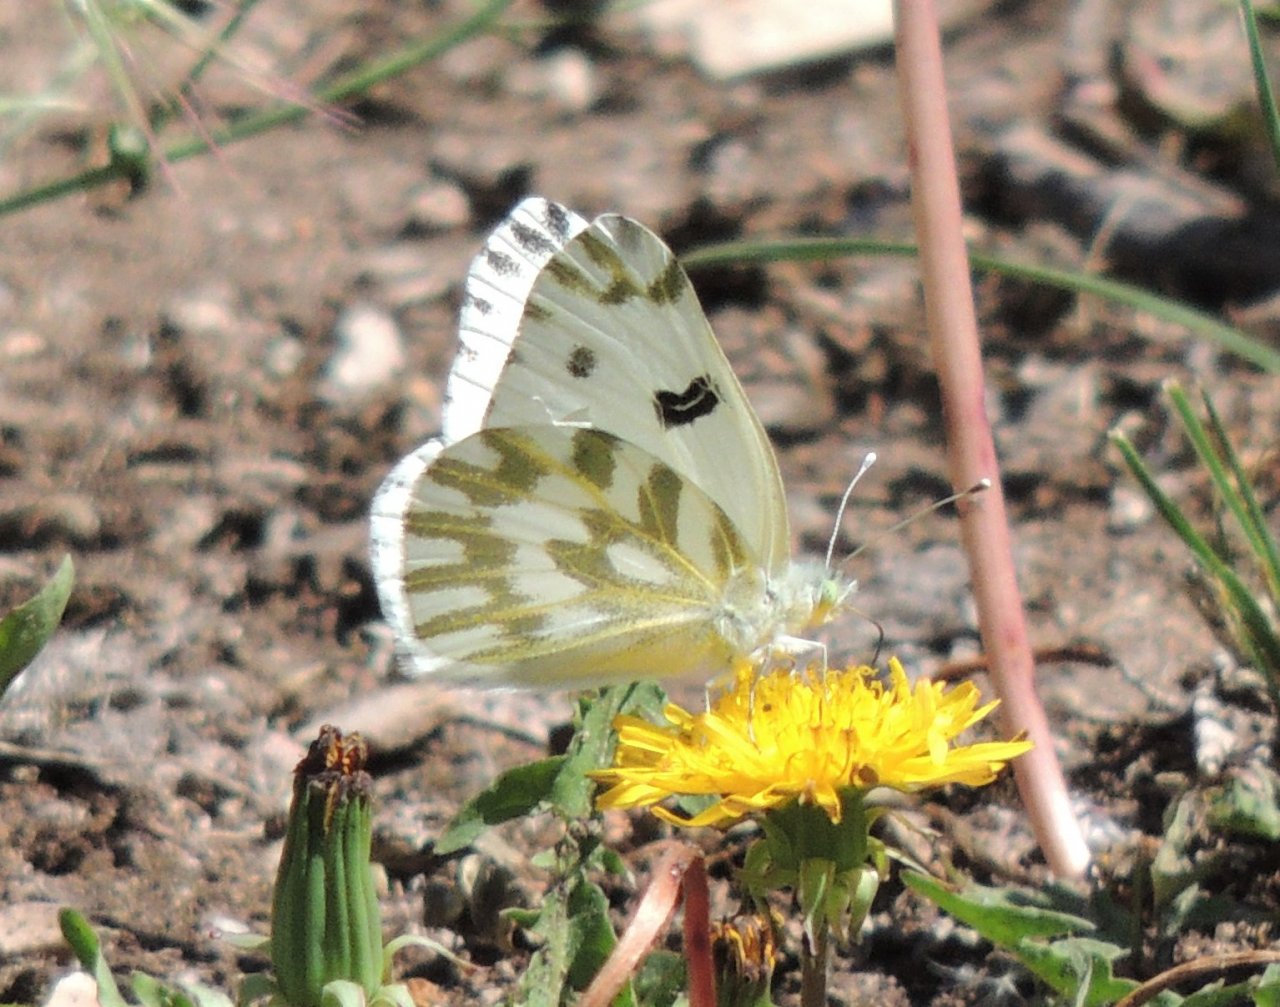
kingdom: Animalia
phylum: Arthropoda
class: Insecta
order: Lepidoptera
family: Pieridae
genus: Pontia
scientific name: Pontia beckerii
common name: Becker's White
